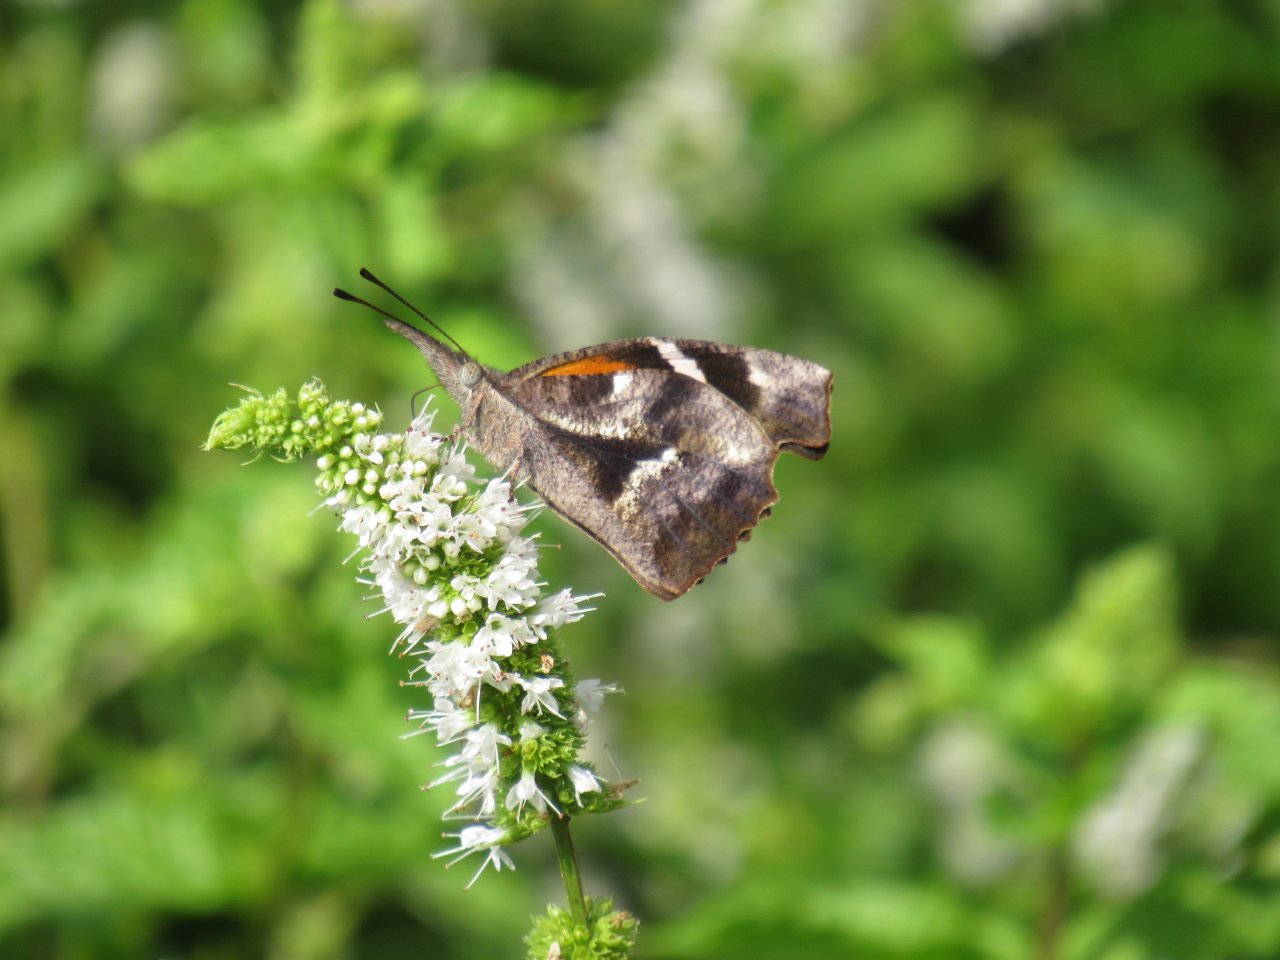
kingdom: Animalia
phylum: Arthropoda
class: Insecta
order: Lepidoptera
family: Nymphalidae
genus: Libytheana
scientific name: Libytheana carinenta
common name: American Snout
